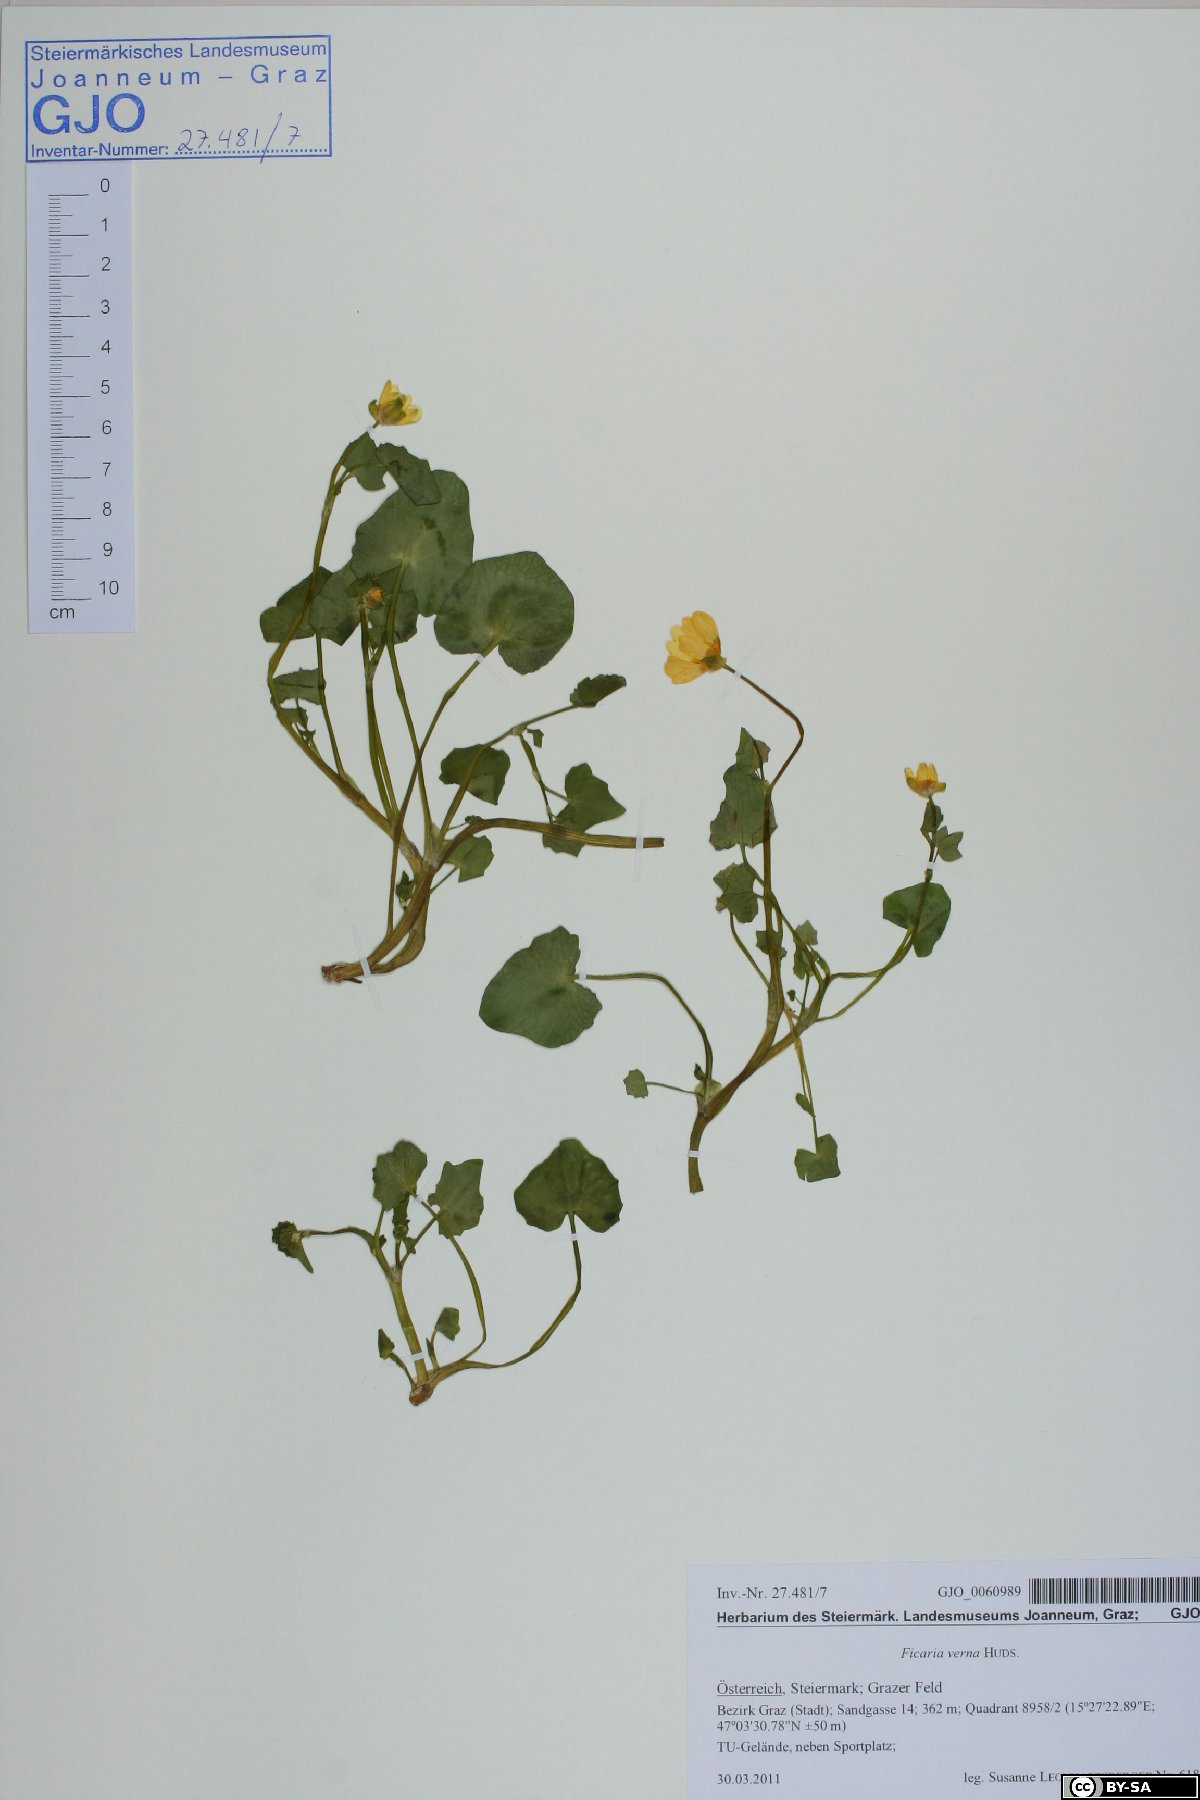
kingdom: Plantae
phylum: Tracheophyta
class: Magnoliopsida
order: Ranunculales
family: Ranunculaceae
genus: Ficaria
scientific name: Ficaria verna
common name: Lesser celandine
